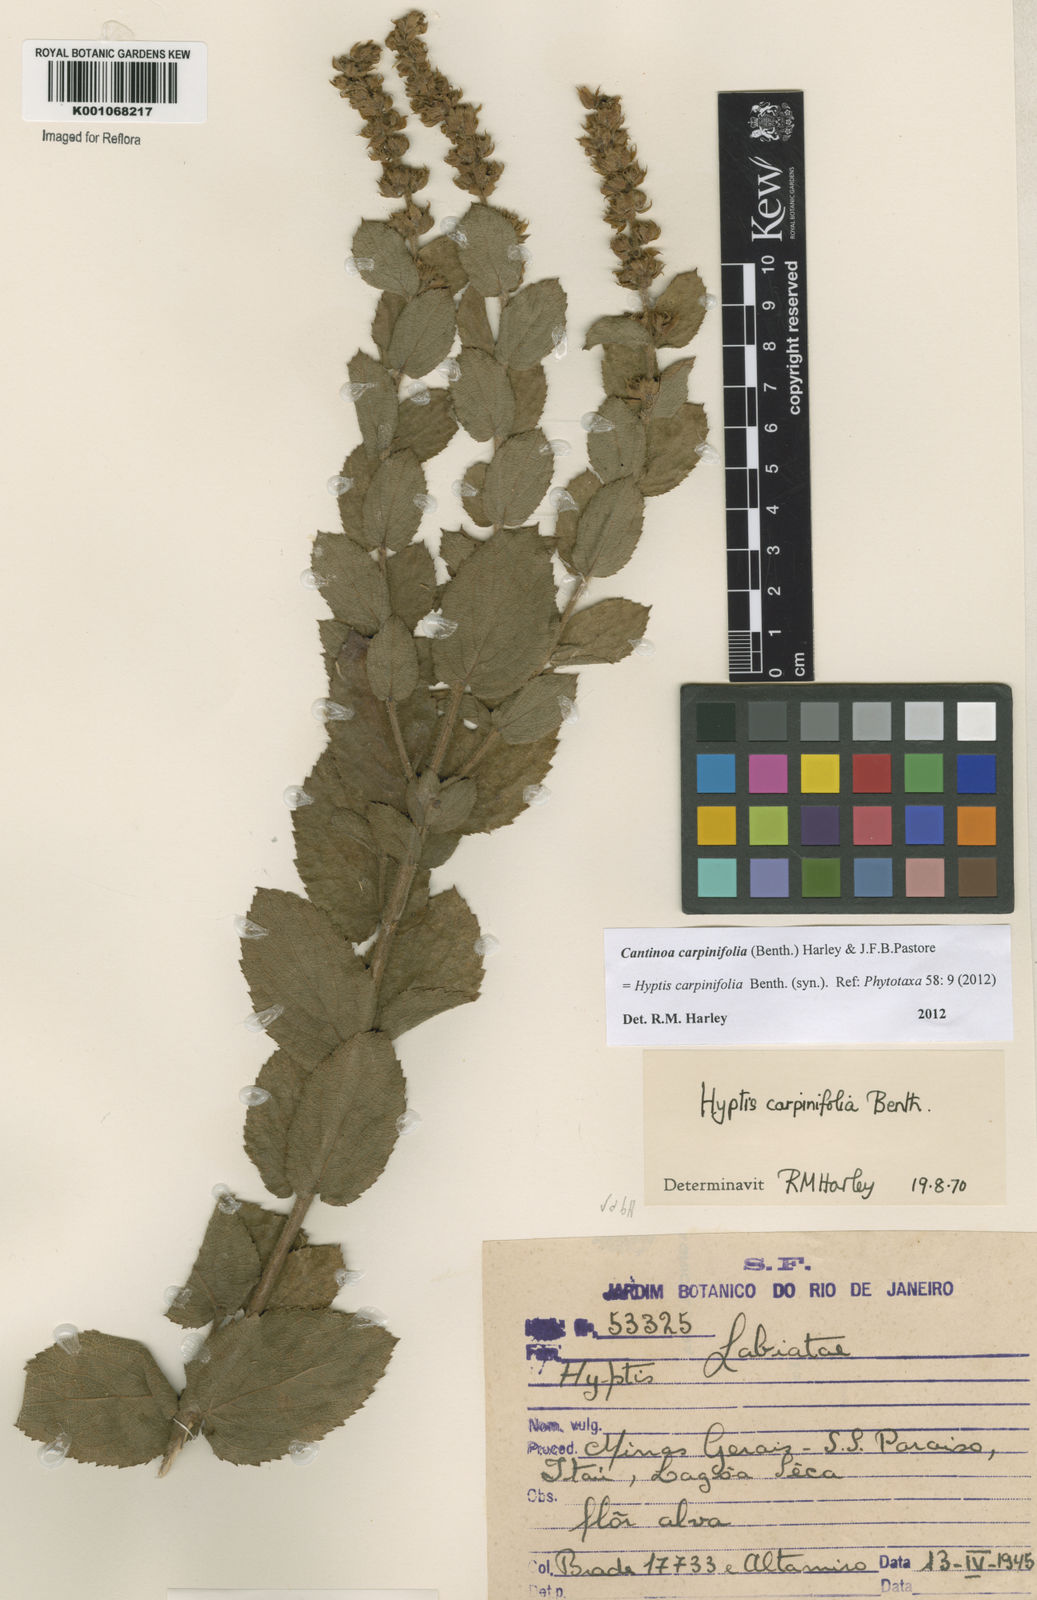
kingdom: Plantae
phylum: Tracheophyta
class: Magnoliopsida
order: Lamiales
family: Lamiaceae
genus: Cantinoa
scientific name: Cantinoa carpinifolia
